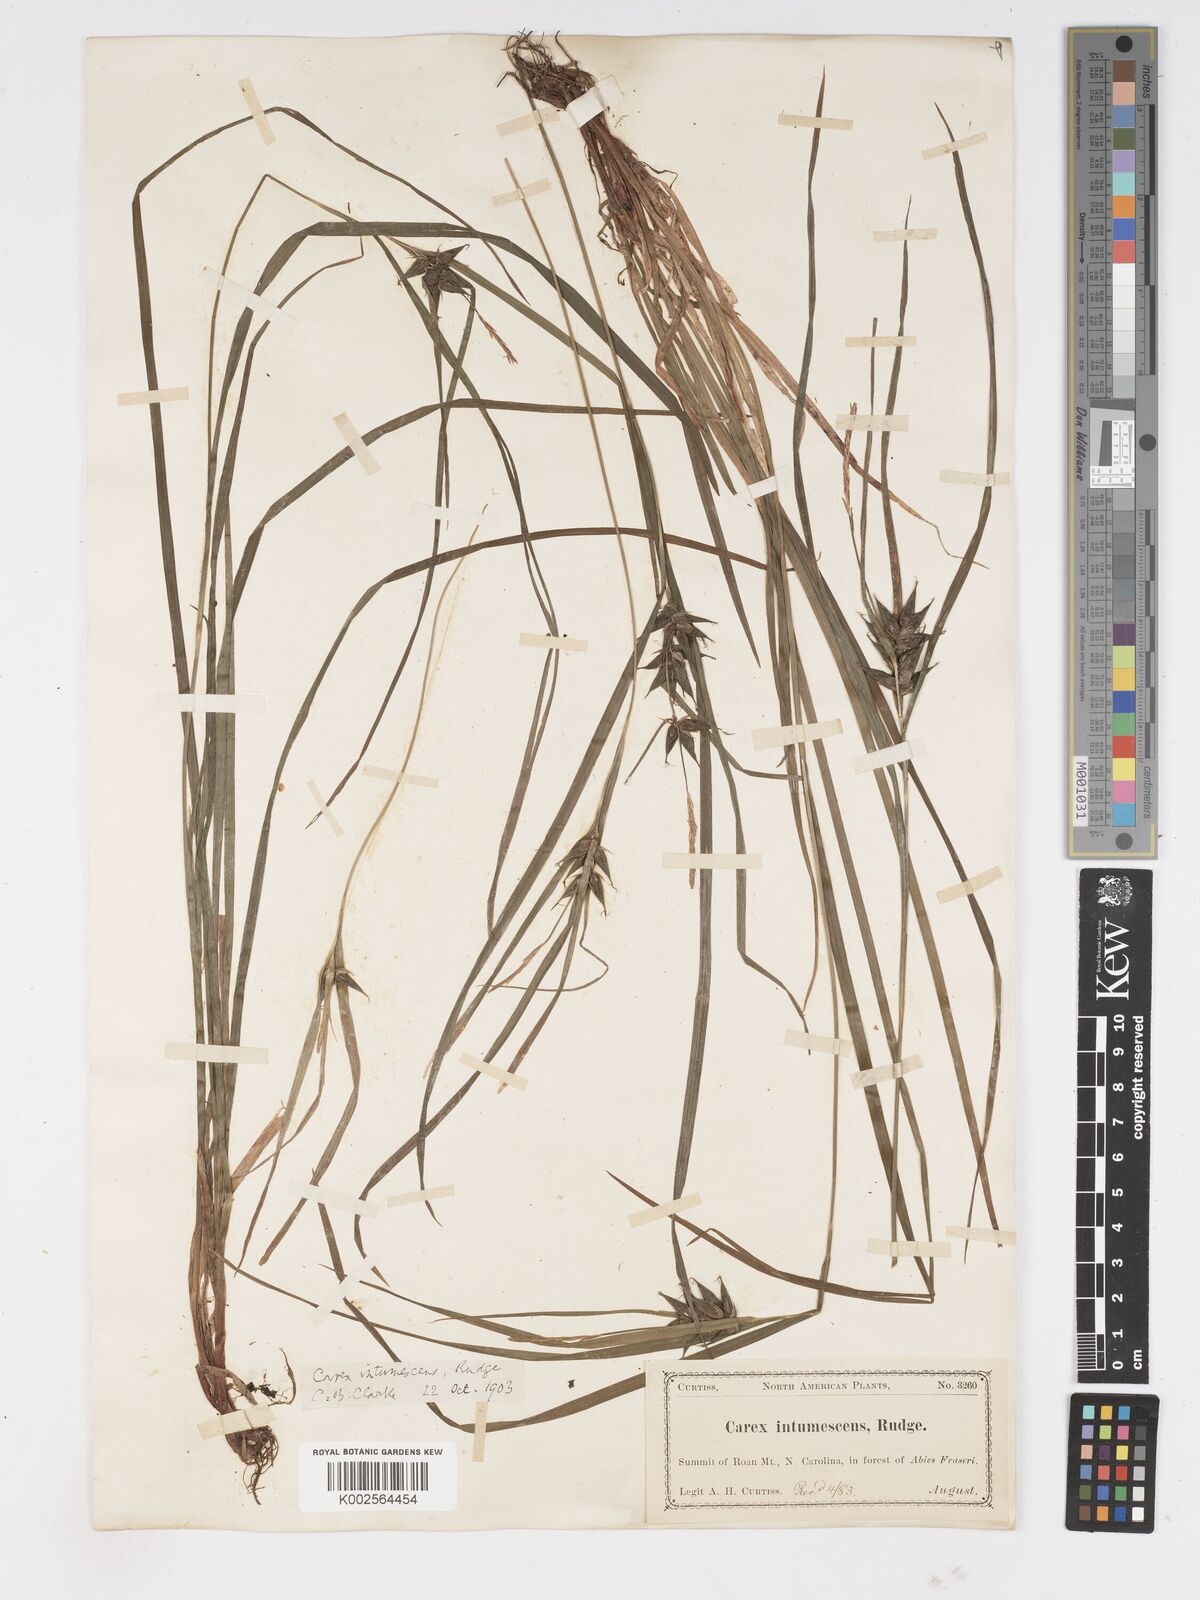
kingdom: Plantae
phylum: Tracheophyta
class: Liliopsida
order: Poales
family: Cyperaceae
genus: Carex
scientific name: Carex intumescens
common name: Greater bladder sedge
